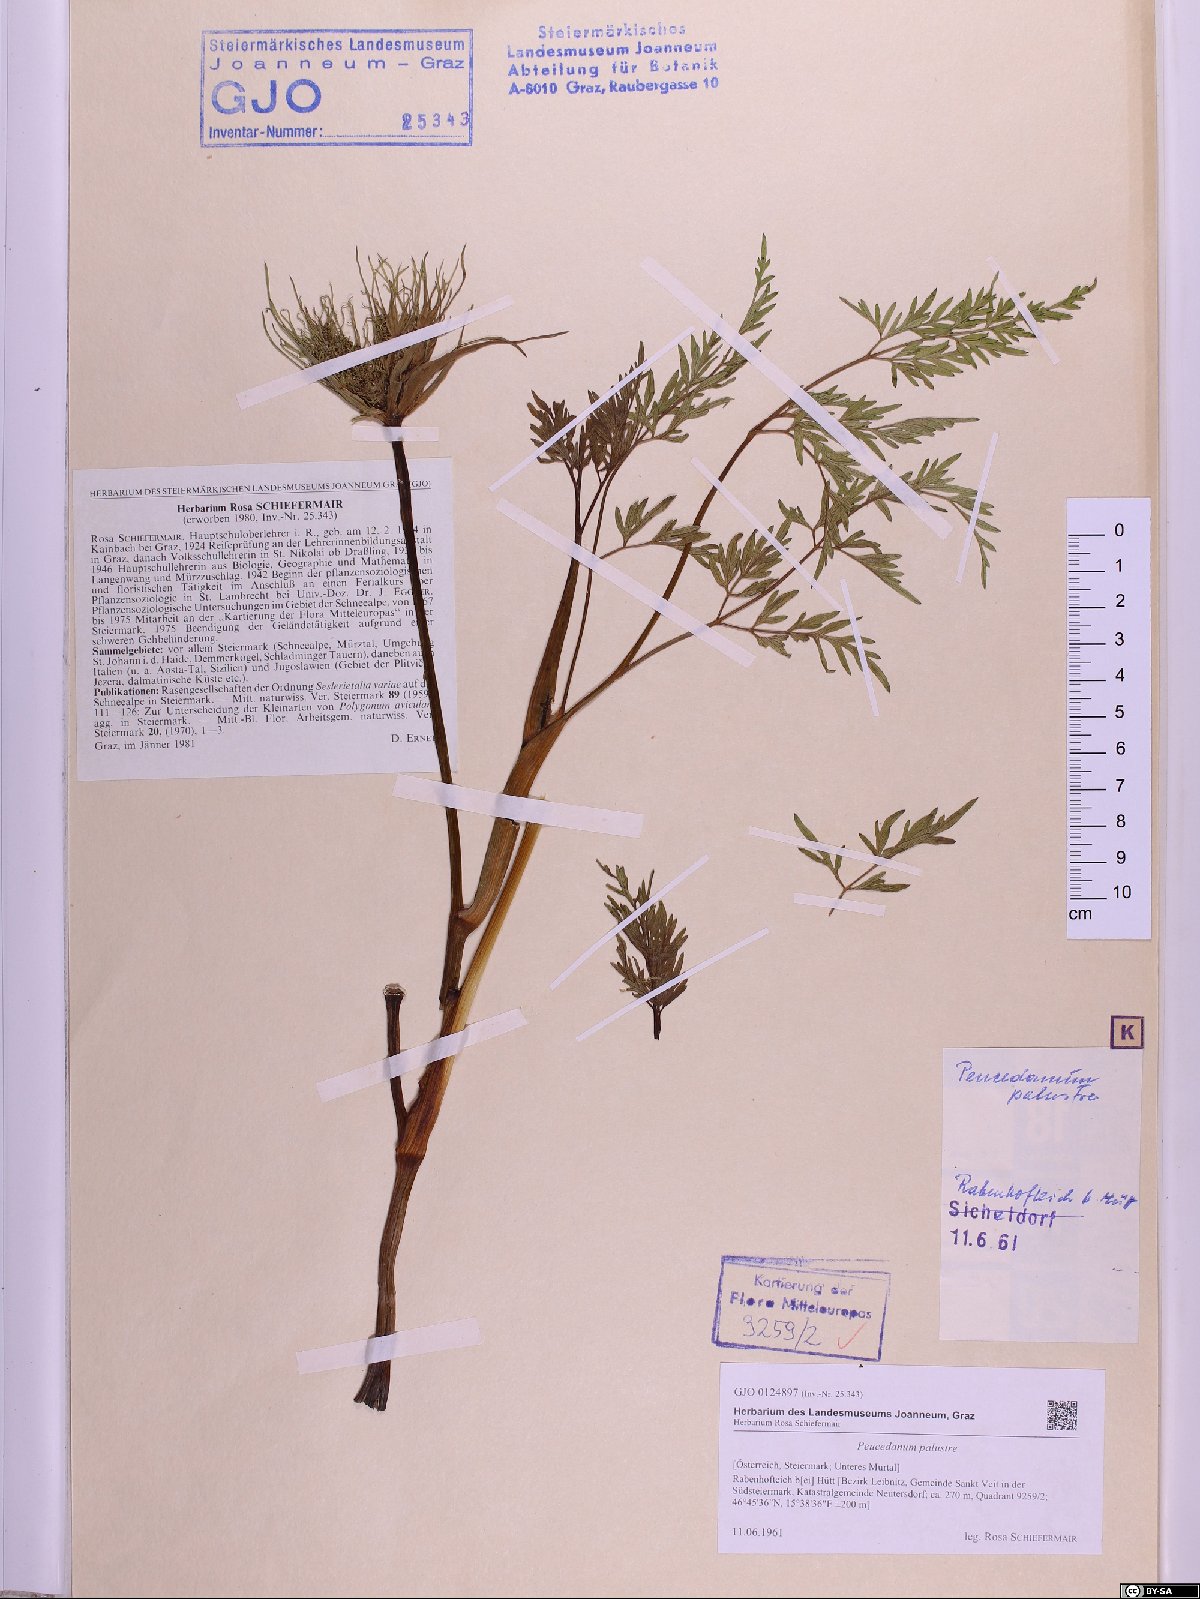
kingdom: Plantae
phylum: Tracheophyta
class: Magnoliopsida
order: Apiales
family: Apiaceae
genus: Thysselinum
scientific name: Thysselinum palustre
